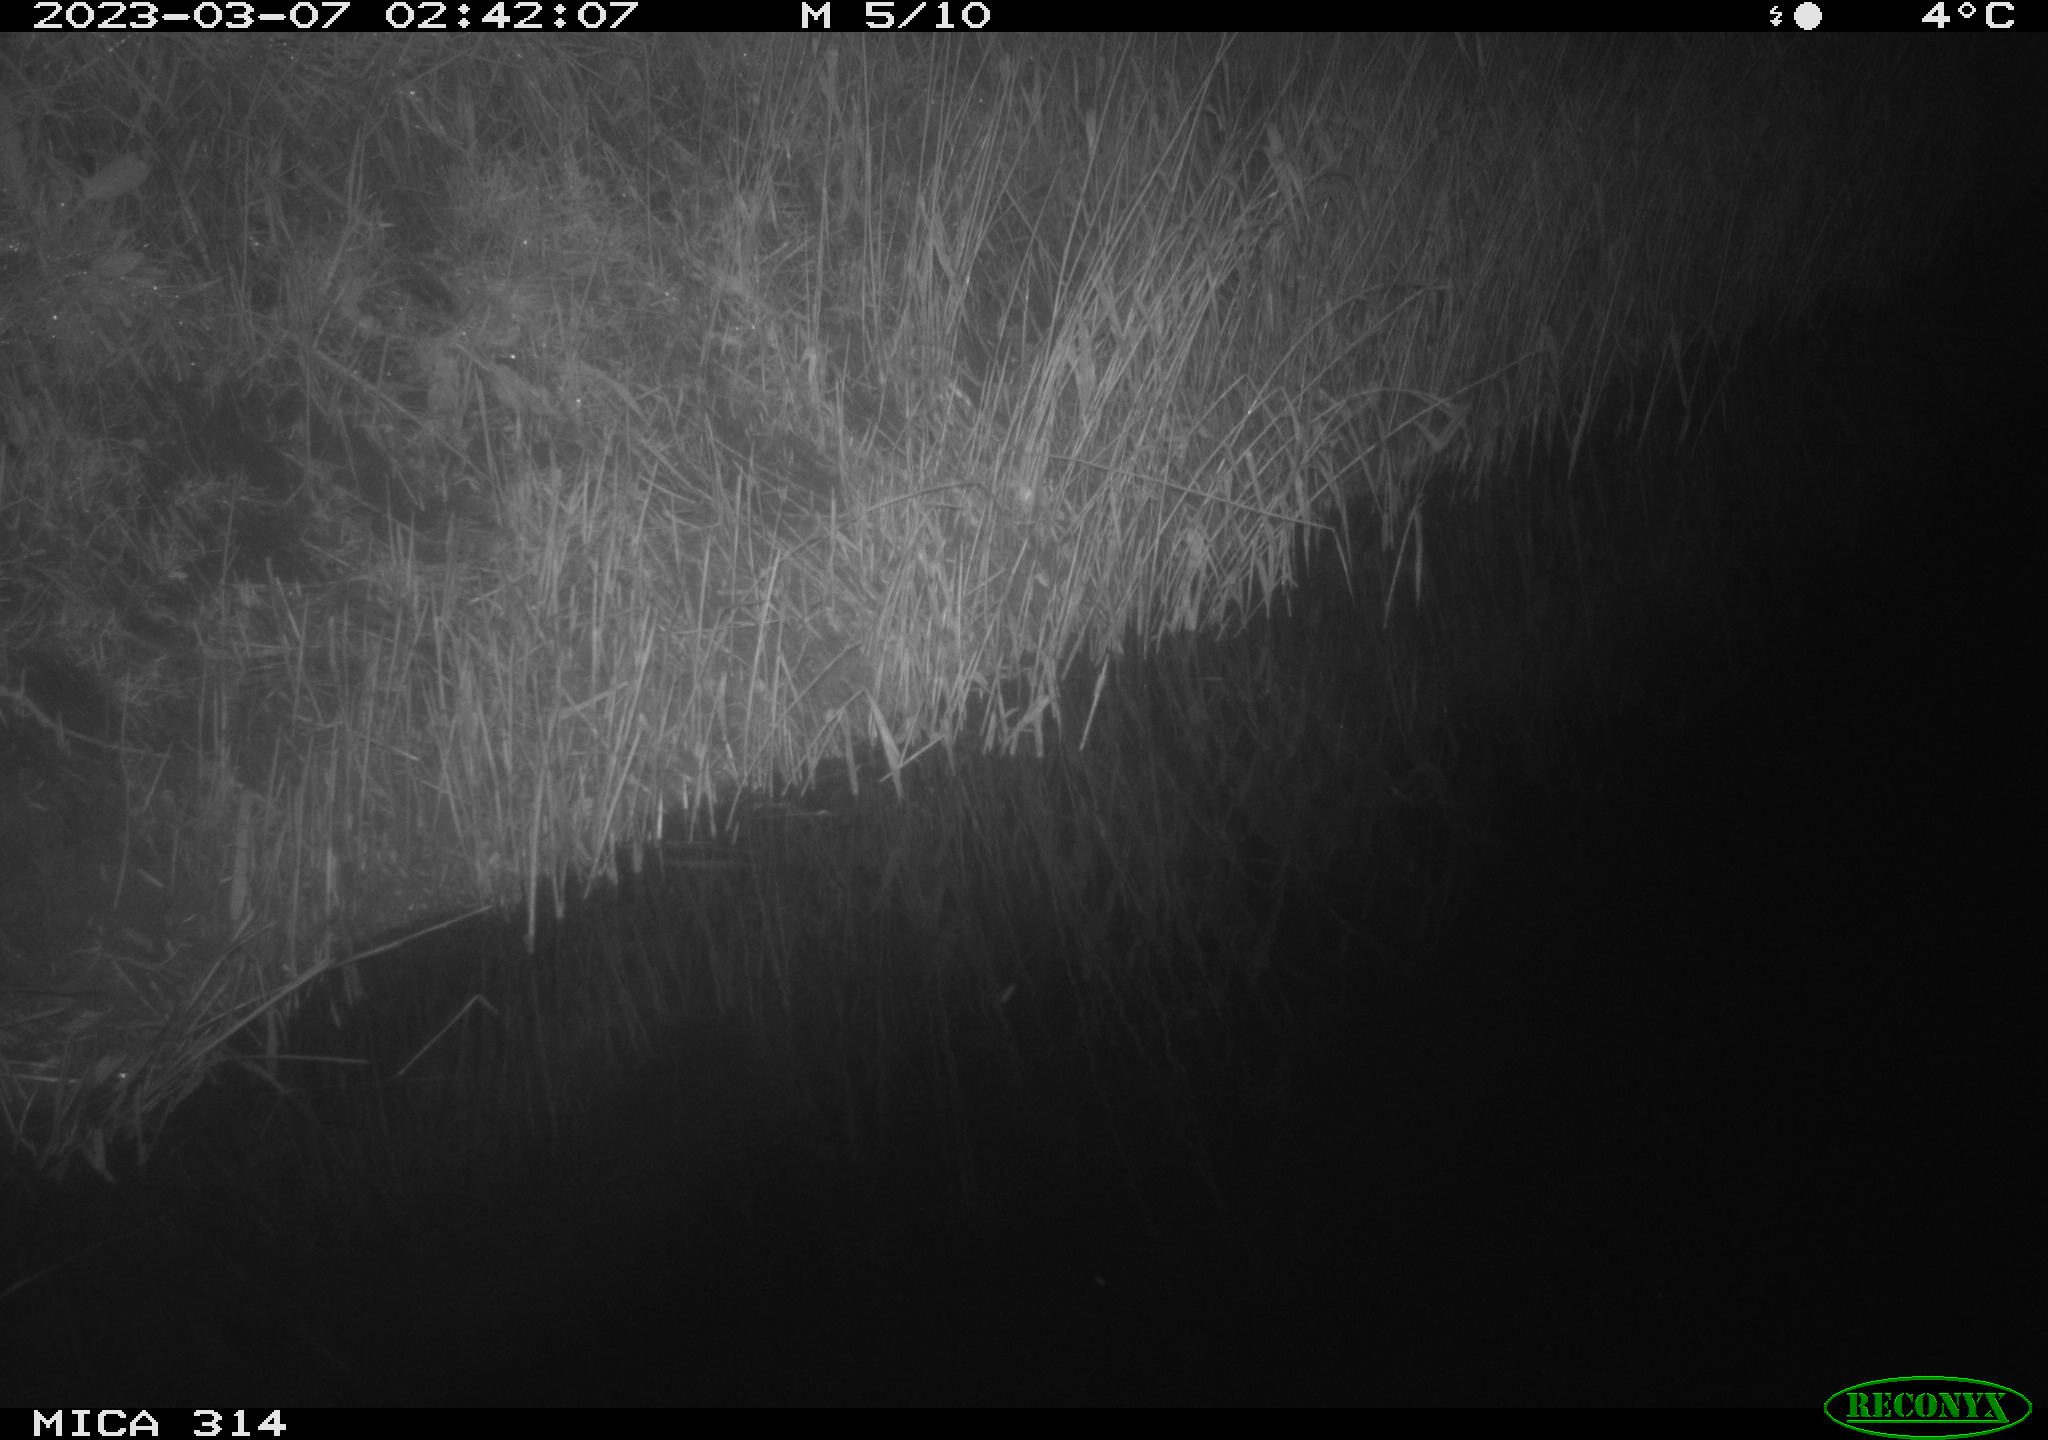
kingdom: Animalia
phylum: Chordata
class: Mammalia
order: Rodentia
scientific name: Rodentia
